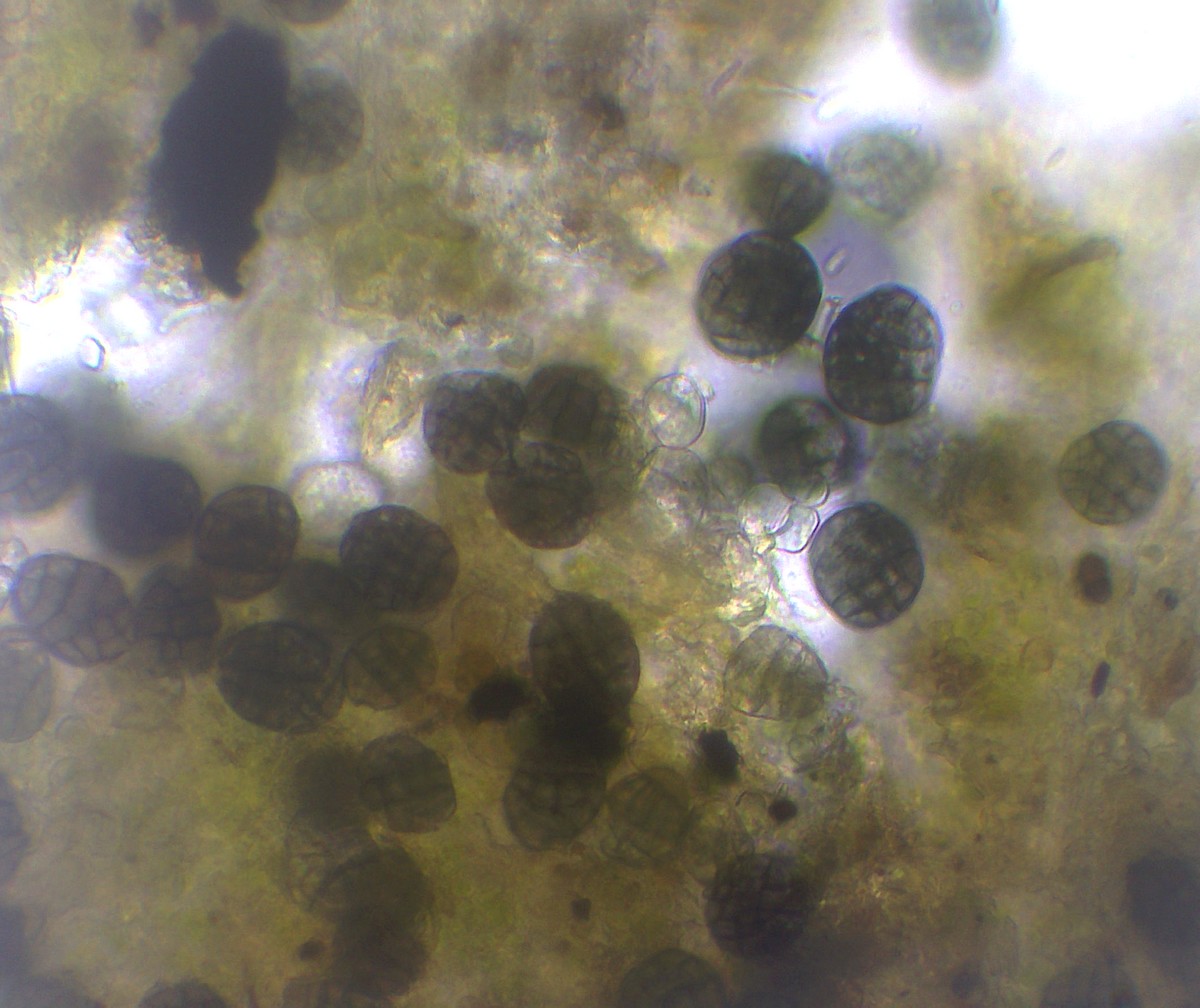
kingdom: Fungi
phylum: Ascomycota
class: Dothideomycetes
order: Dothideales
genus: Monodictys
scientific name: Monodictys paradoxa
